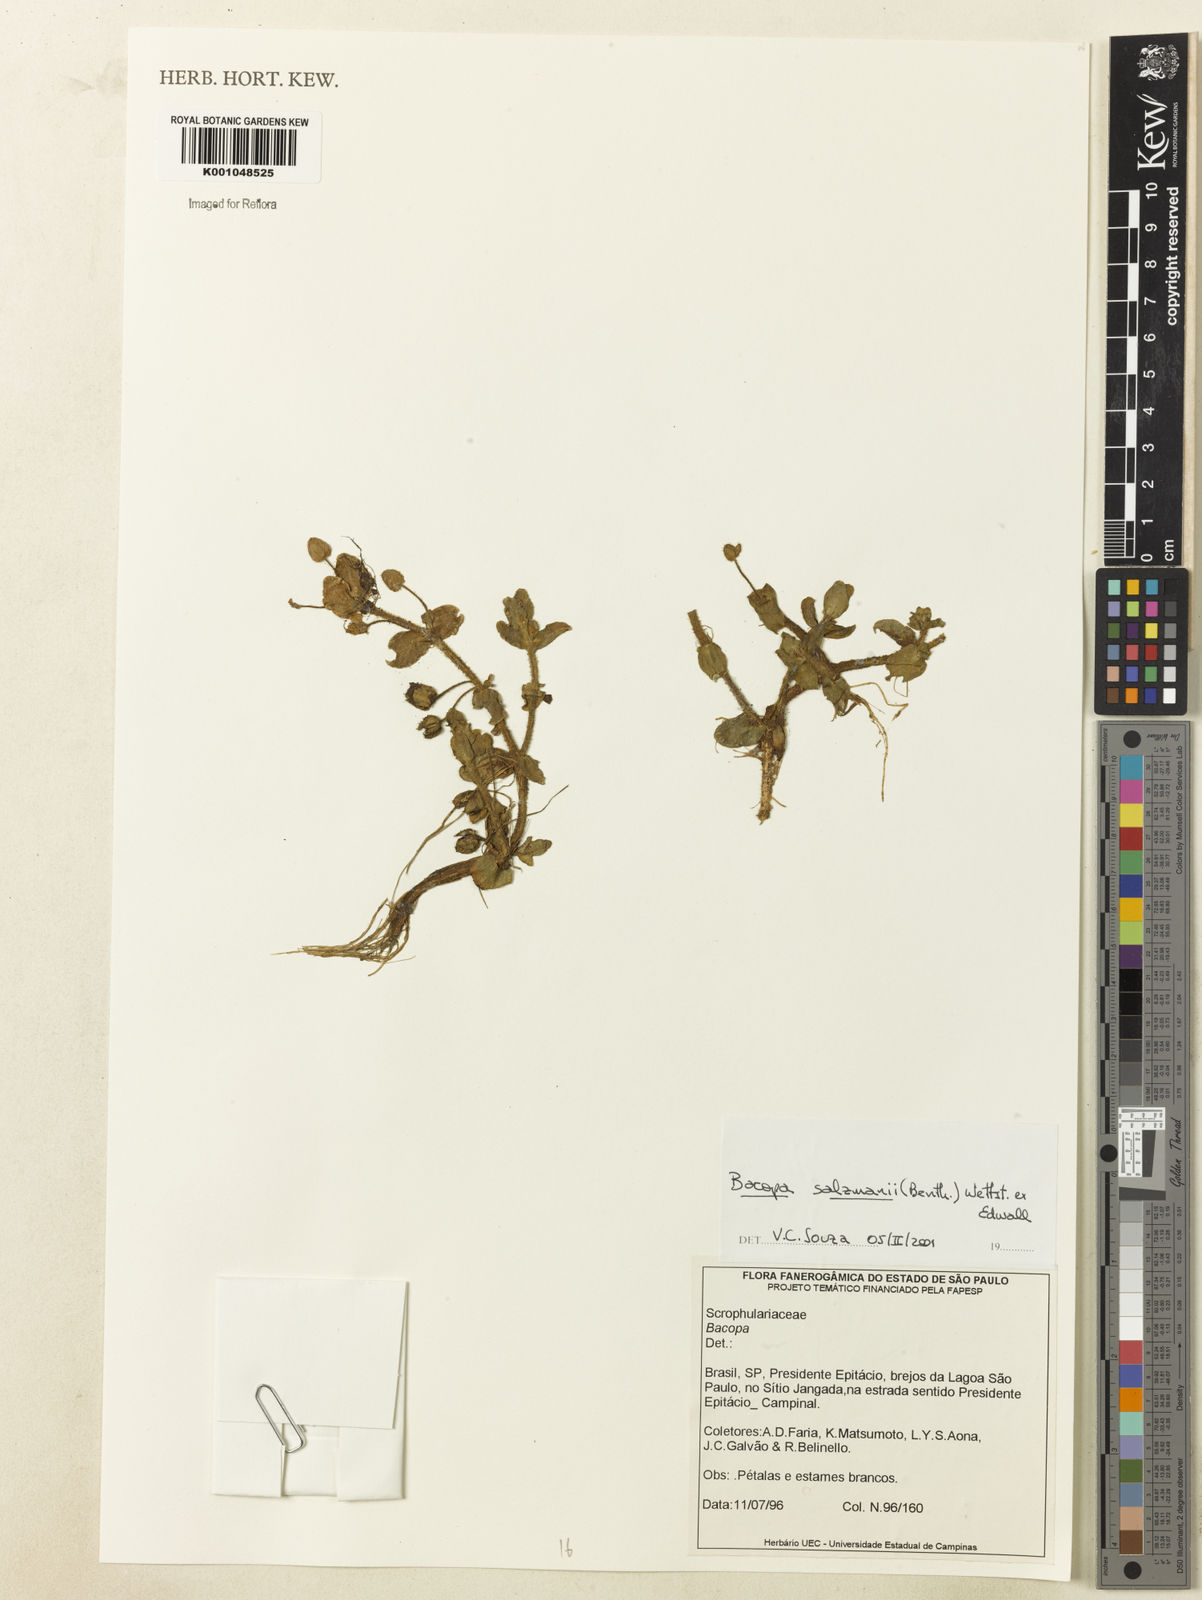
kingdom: Plantae
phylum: Tracheophyta
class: Magnoliopsida
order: Lamiales
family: Plantaginaceae
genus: Bacopa
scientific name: Bacopa salzmannii
